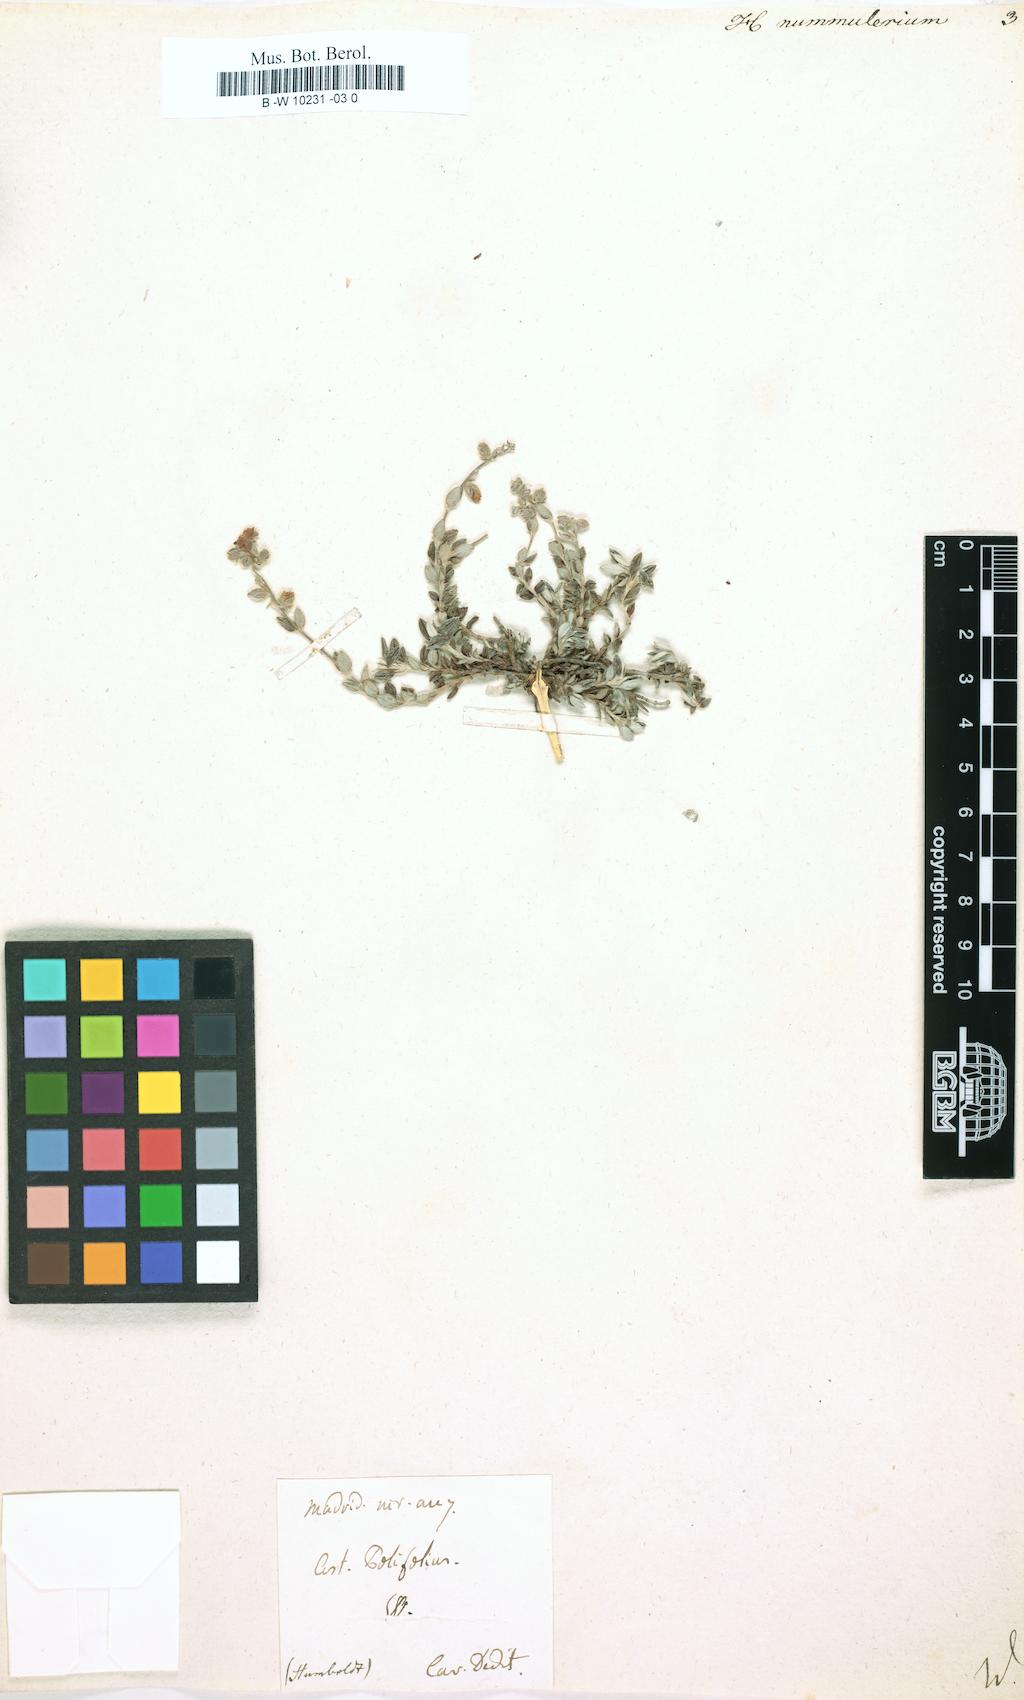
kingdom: Plantae
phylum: Tracheophyta
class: Magnoliopsida
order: Malvales
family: Cistaceae
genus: Helianthemum
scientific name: Helianthemum nummularium
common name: Common rock-rose
